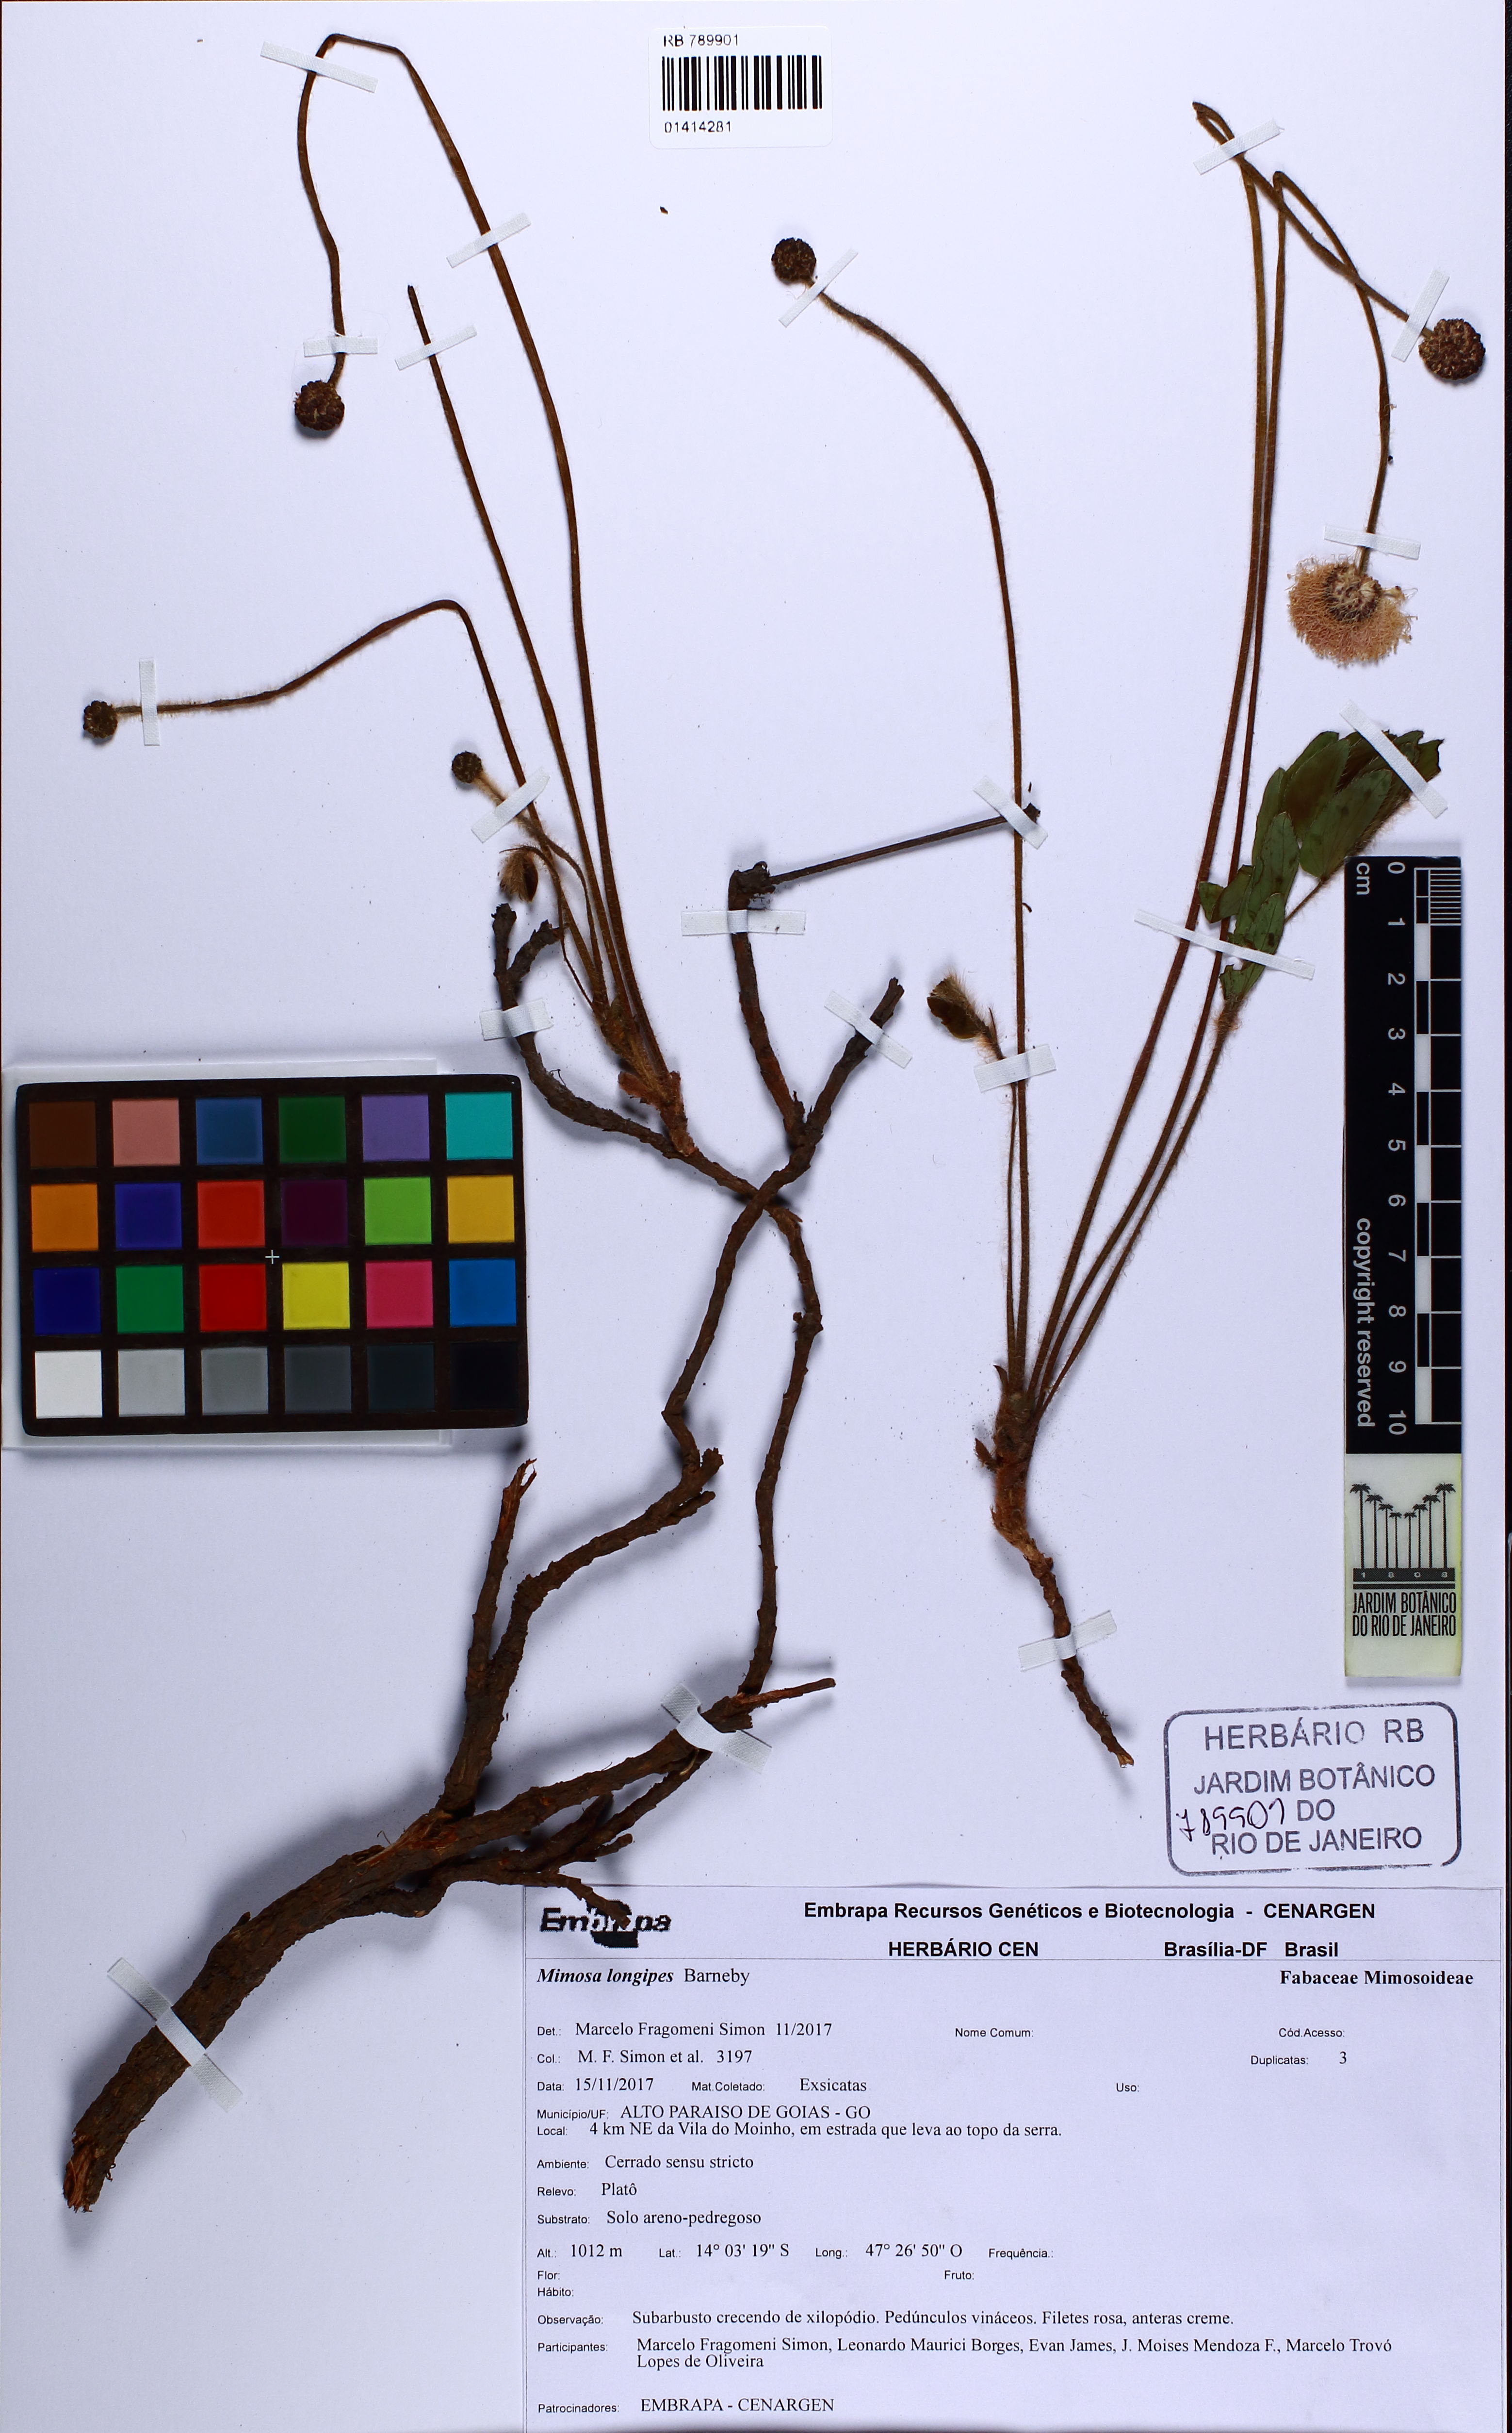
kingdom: Plantae
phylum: Tracheophyta
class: Magnoliopsida
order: Fabales
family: Fabaceae
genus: Mimosa
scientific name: Mimosa longipes
